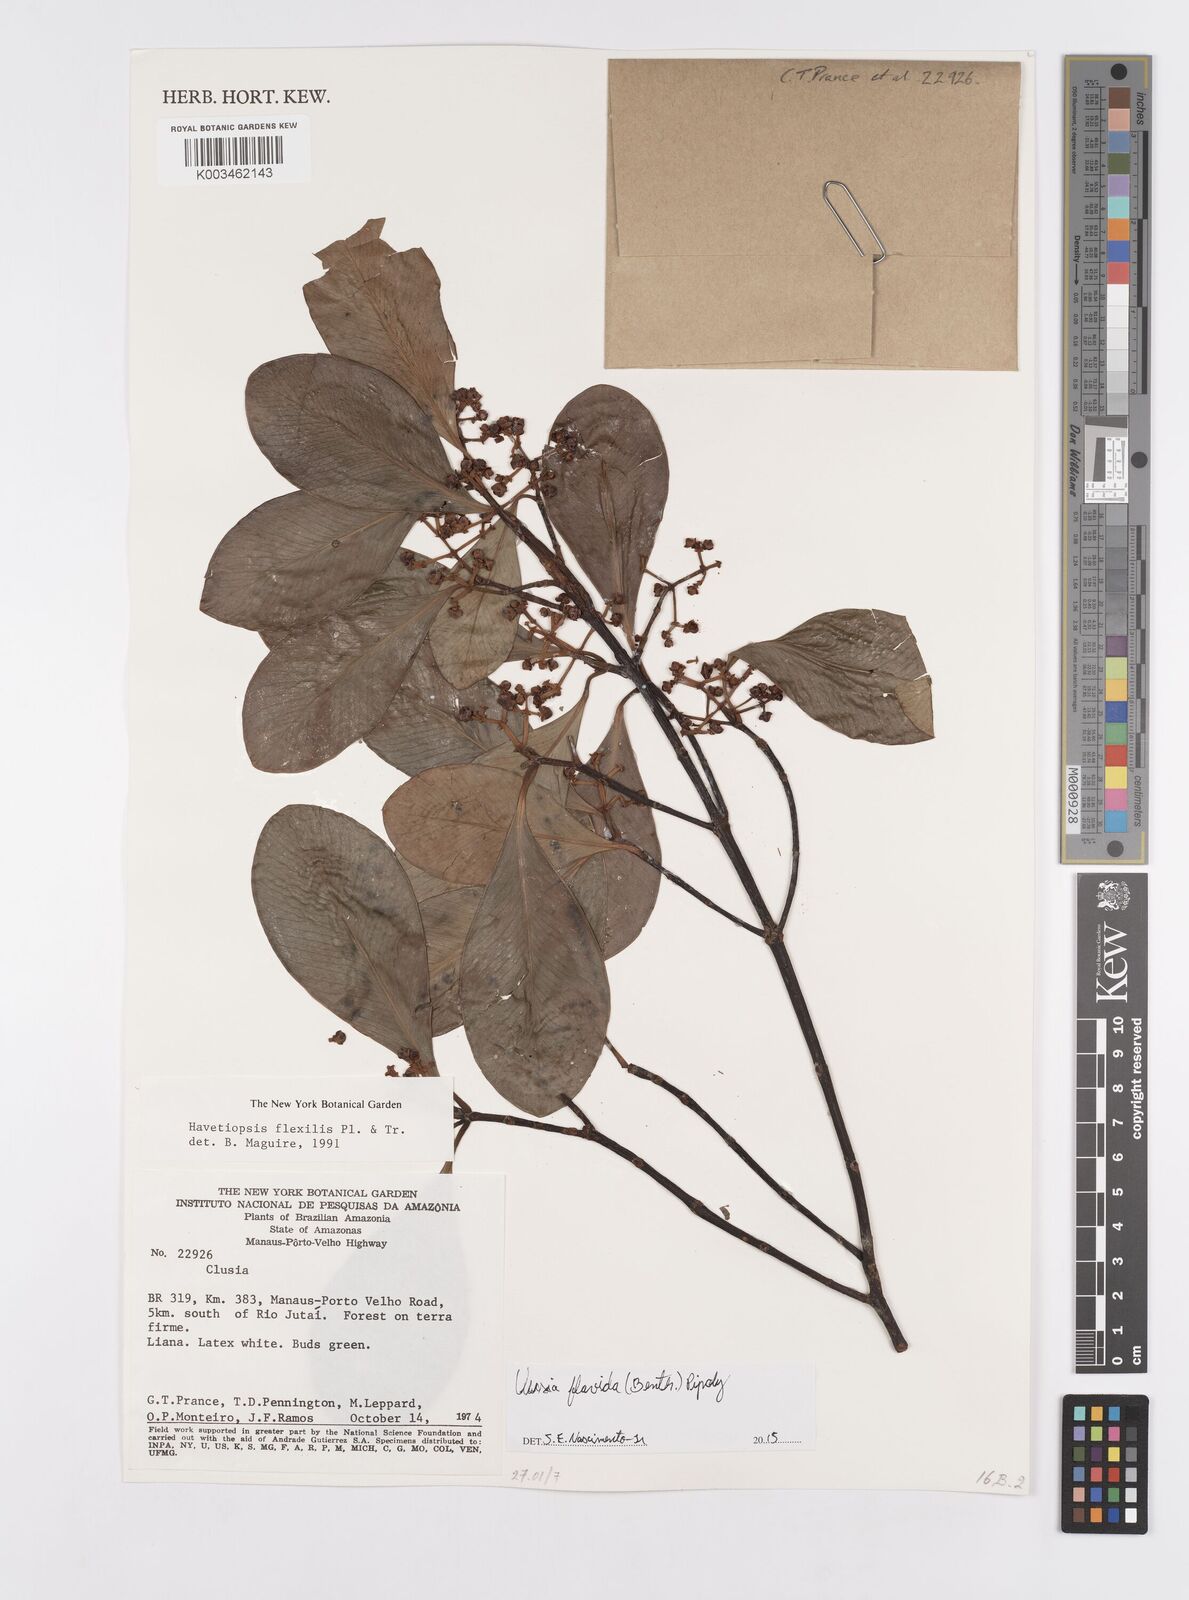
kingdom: Plantae
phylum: Tracheophyta
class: Magnoliopsida
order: Malpighiales
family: Clusiaceae
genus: Clusia
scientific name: Clusia flavida
